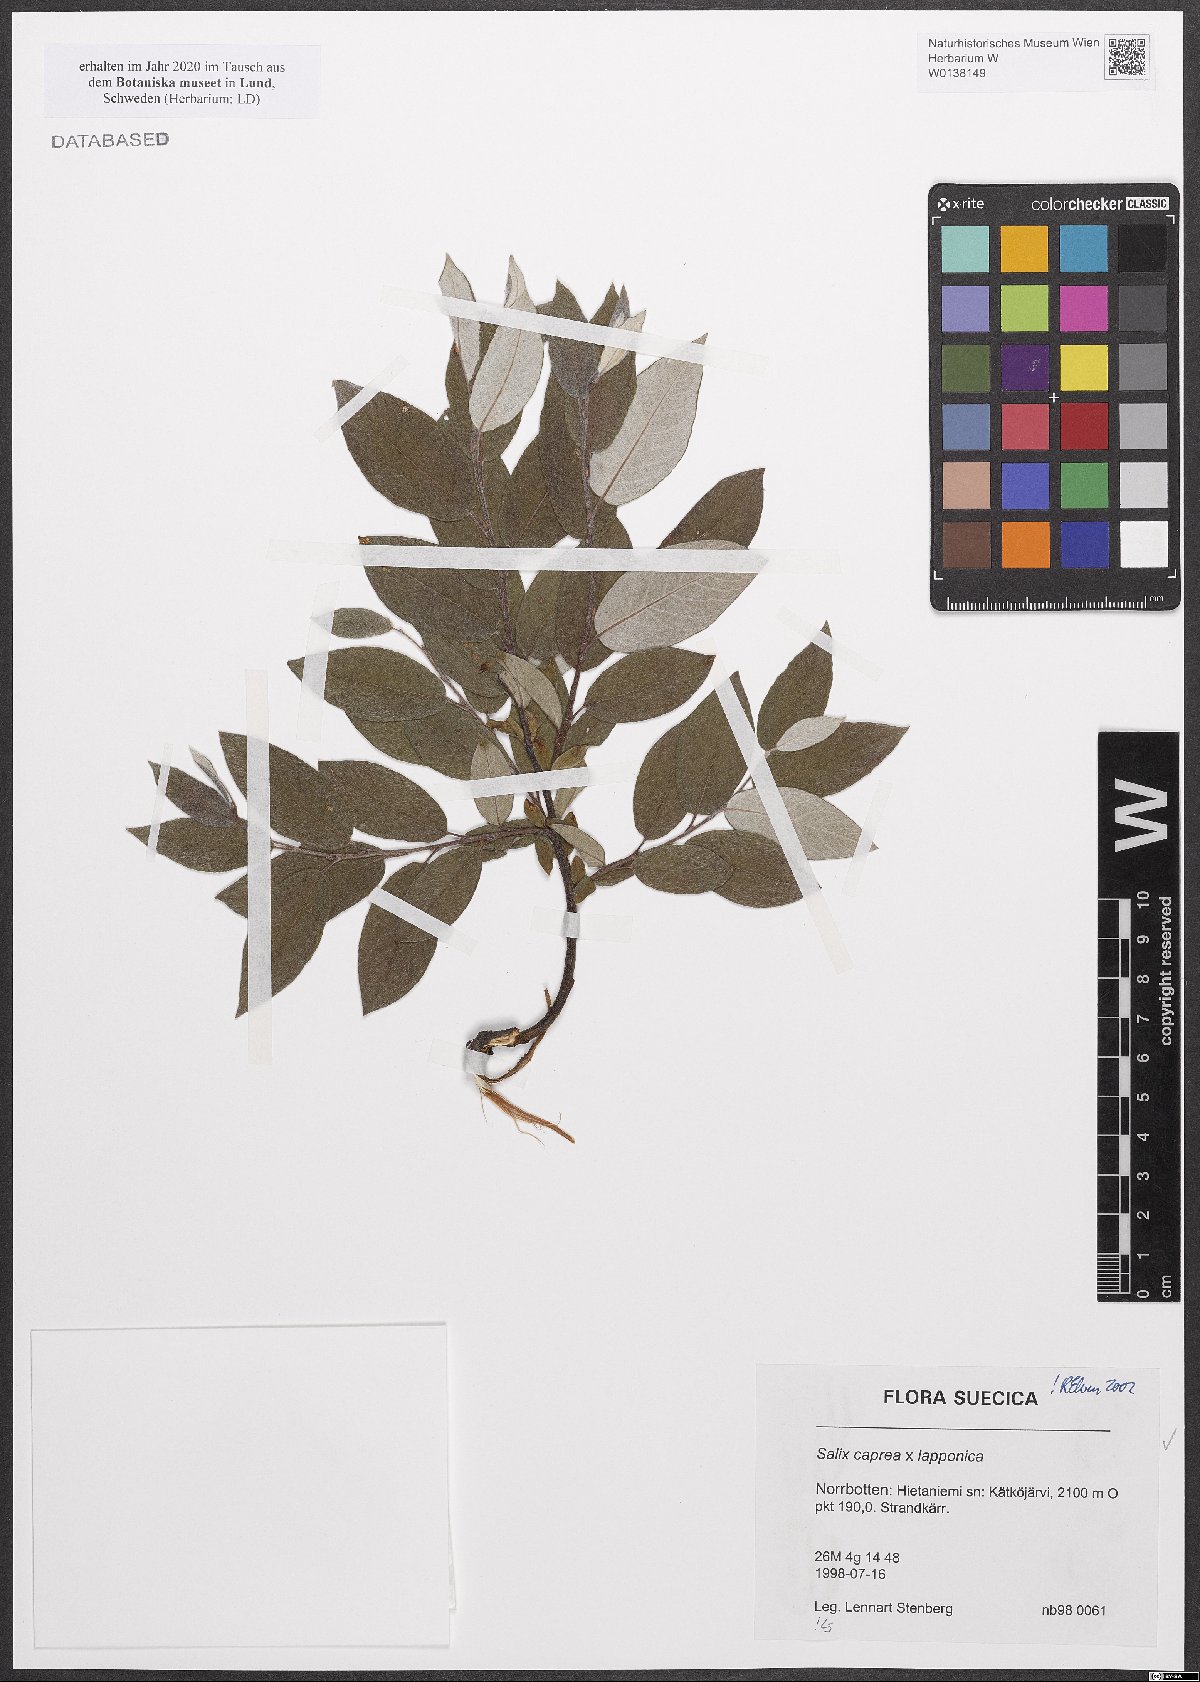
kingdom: Plantae
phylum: Tracheophyta
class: Magnoliopsida
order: Malpighiales
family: Salicaceae
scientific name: Salicaceae
